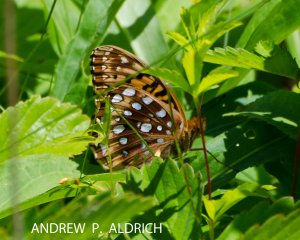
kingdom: Animalia
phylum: Arthropoda
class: Insecta
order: Lepidoptera
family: Nymphalidae
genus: Speyeria
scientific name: Speyeria cybele
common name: Great Spangled Fritillary
